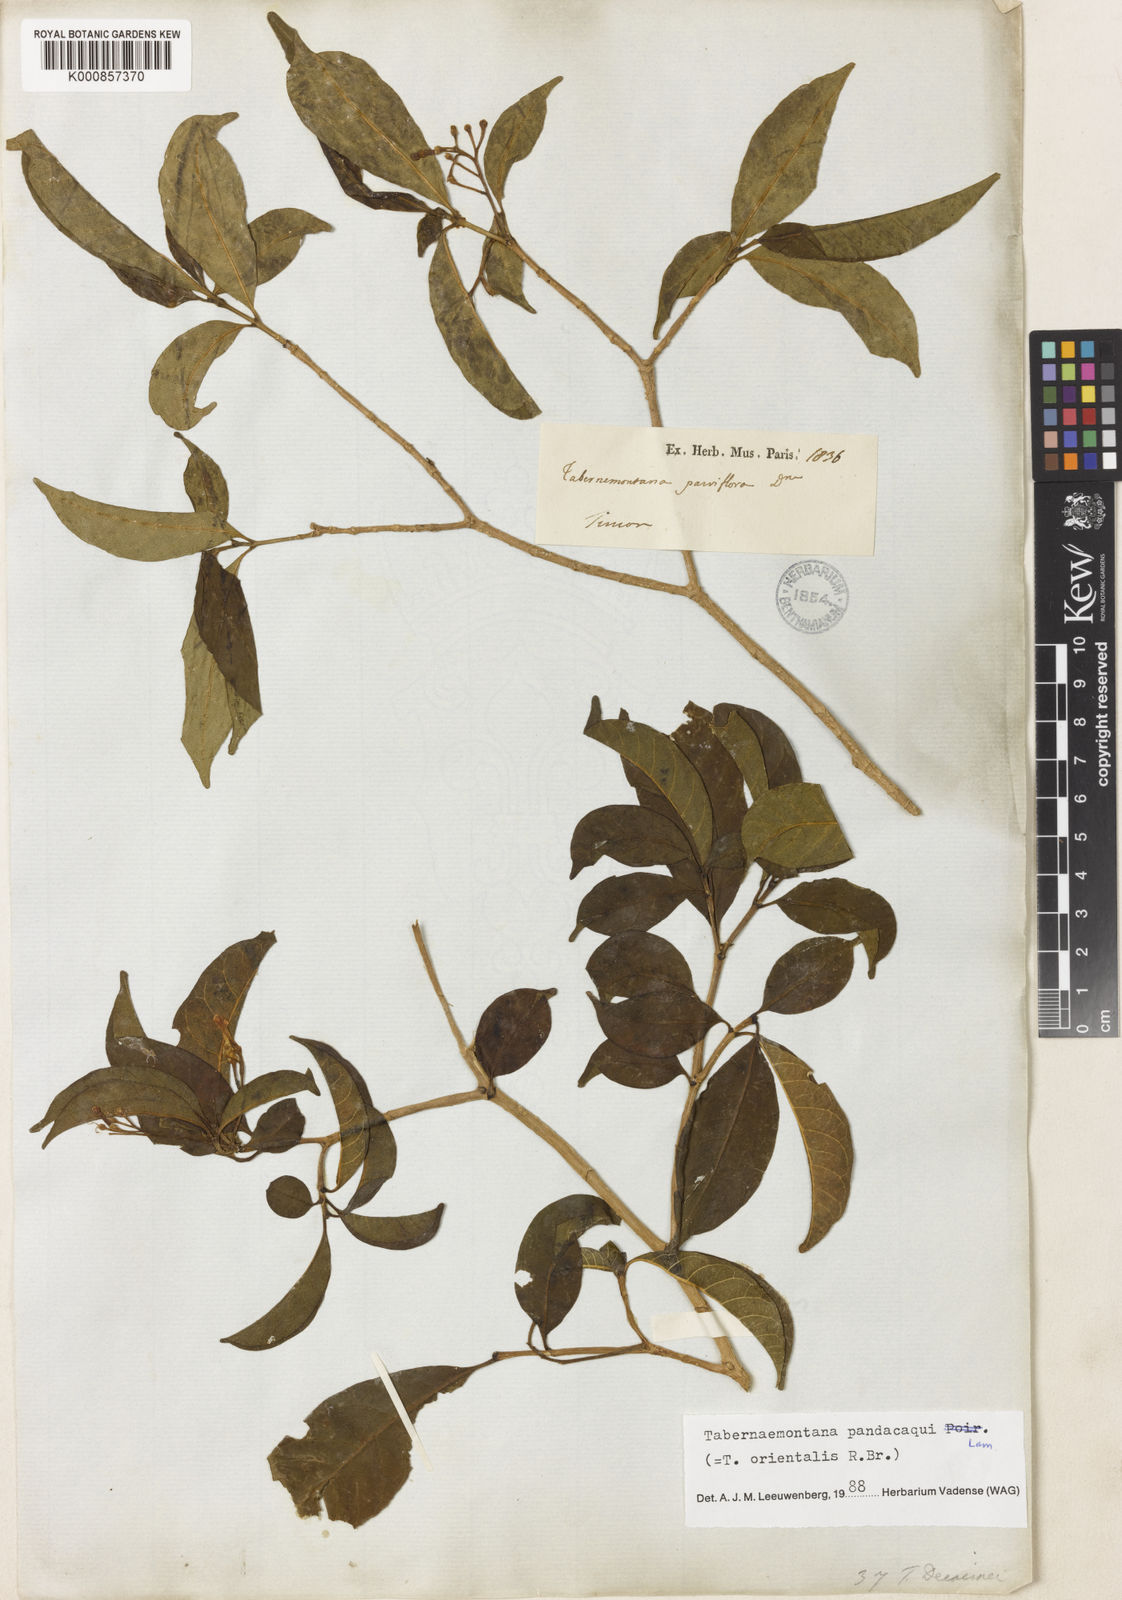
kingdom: Plantae
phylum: Tracheophyta
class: Magnoliopsida
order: Gentianales
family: Apocynaceae
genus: Tabernaemontana
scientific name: Tabernaemontana
